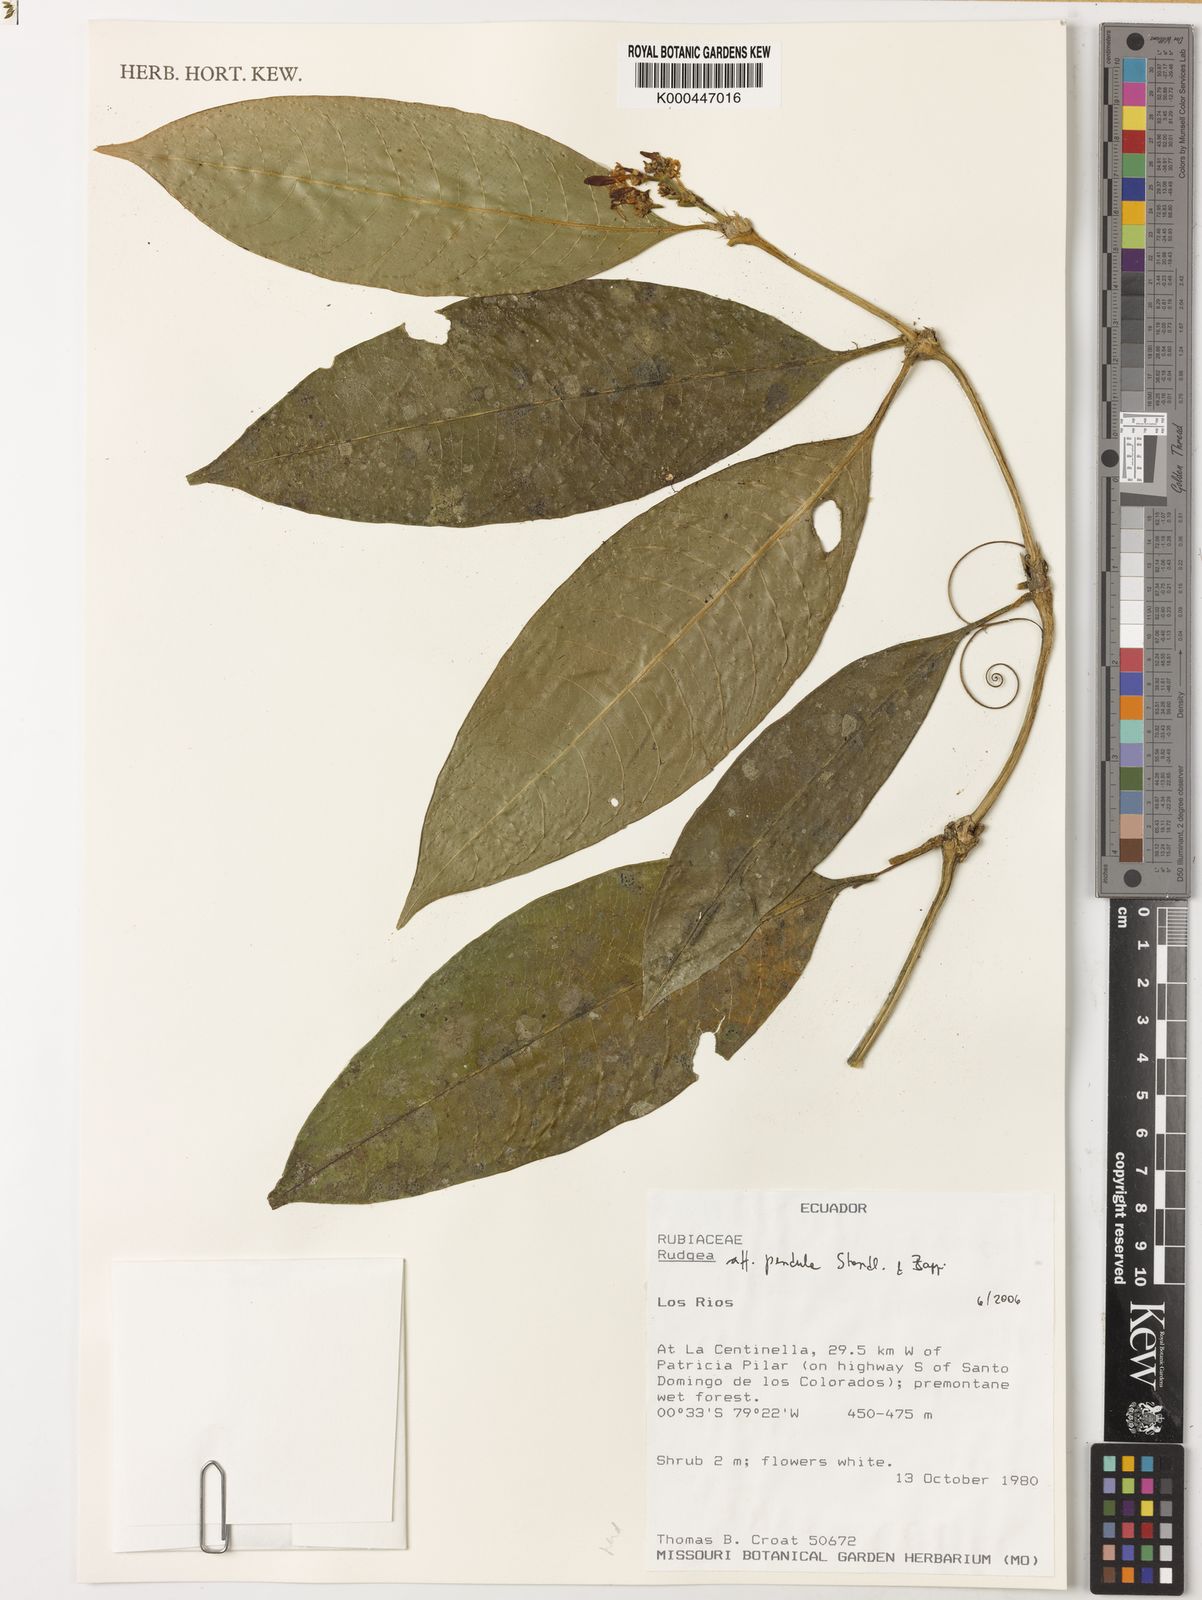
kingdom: Plantae
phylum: Tracheophyta
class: Magnoliopsida
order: Gentianales
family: Rubiaceae
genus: Rudgea
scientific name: Rudgea pendula
